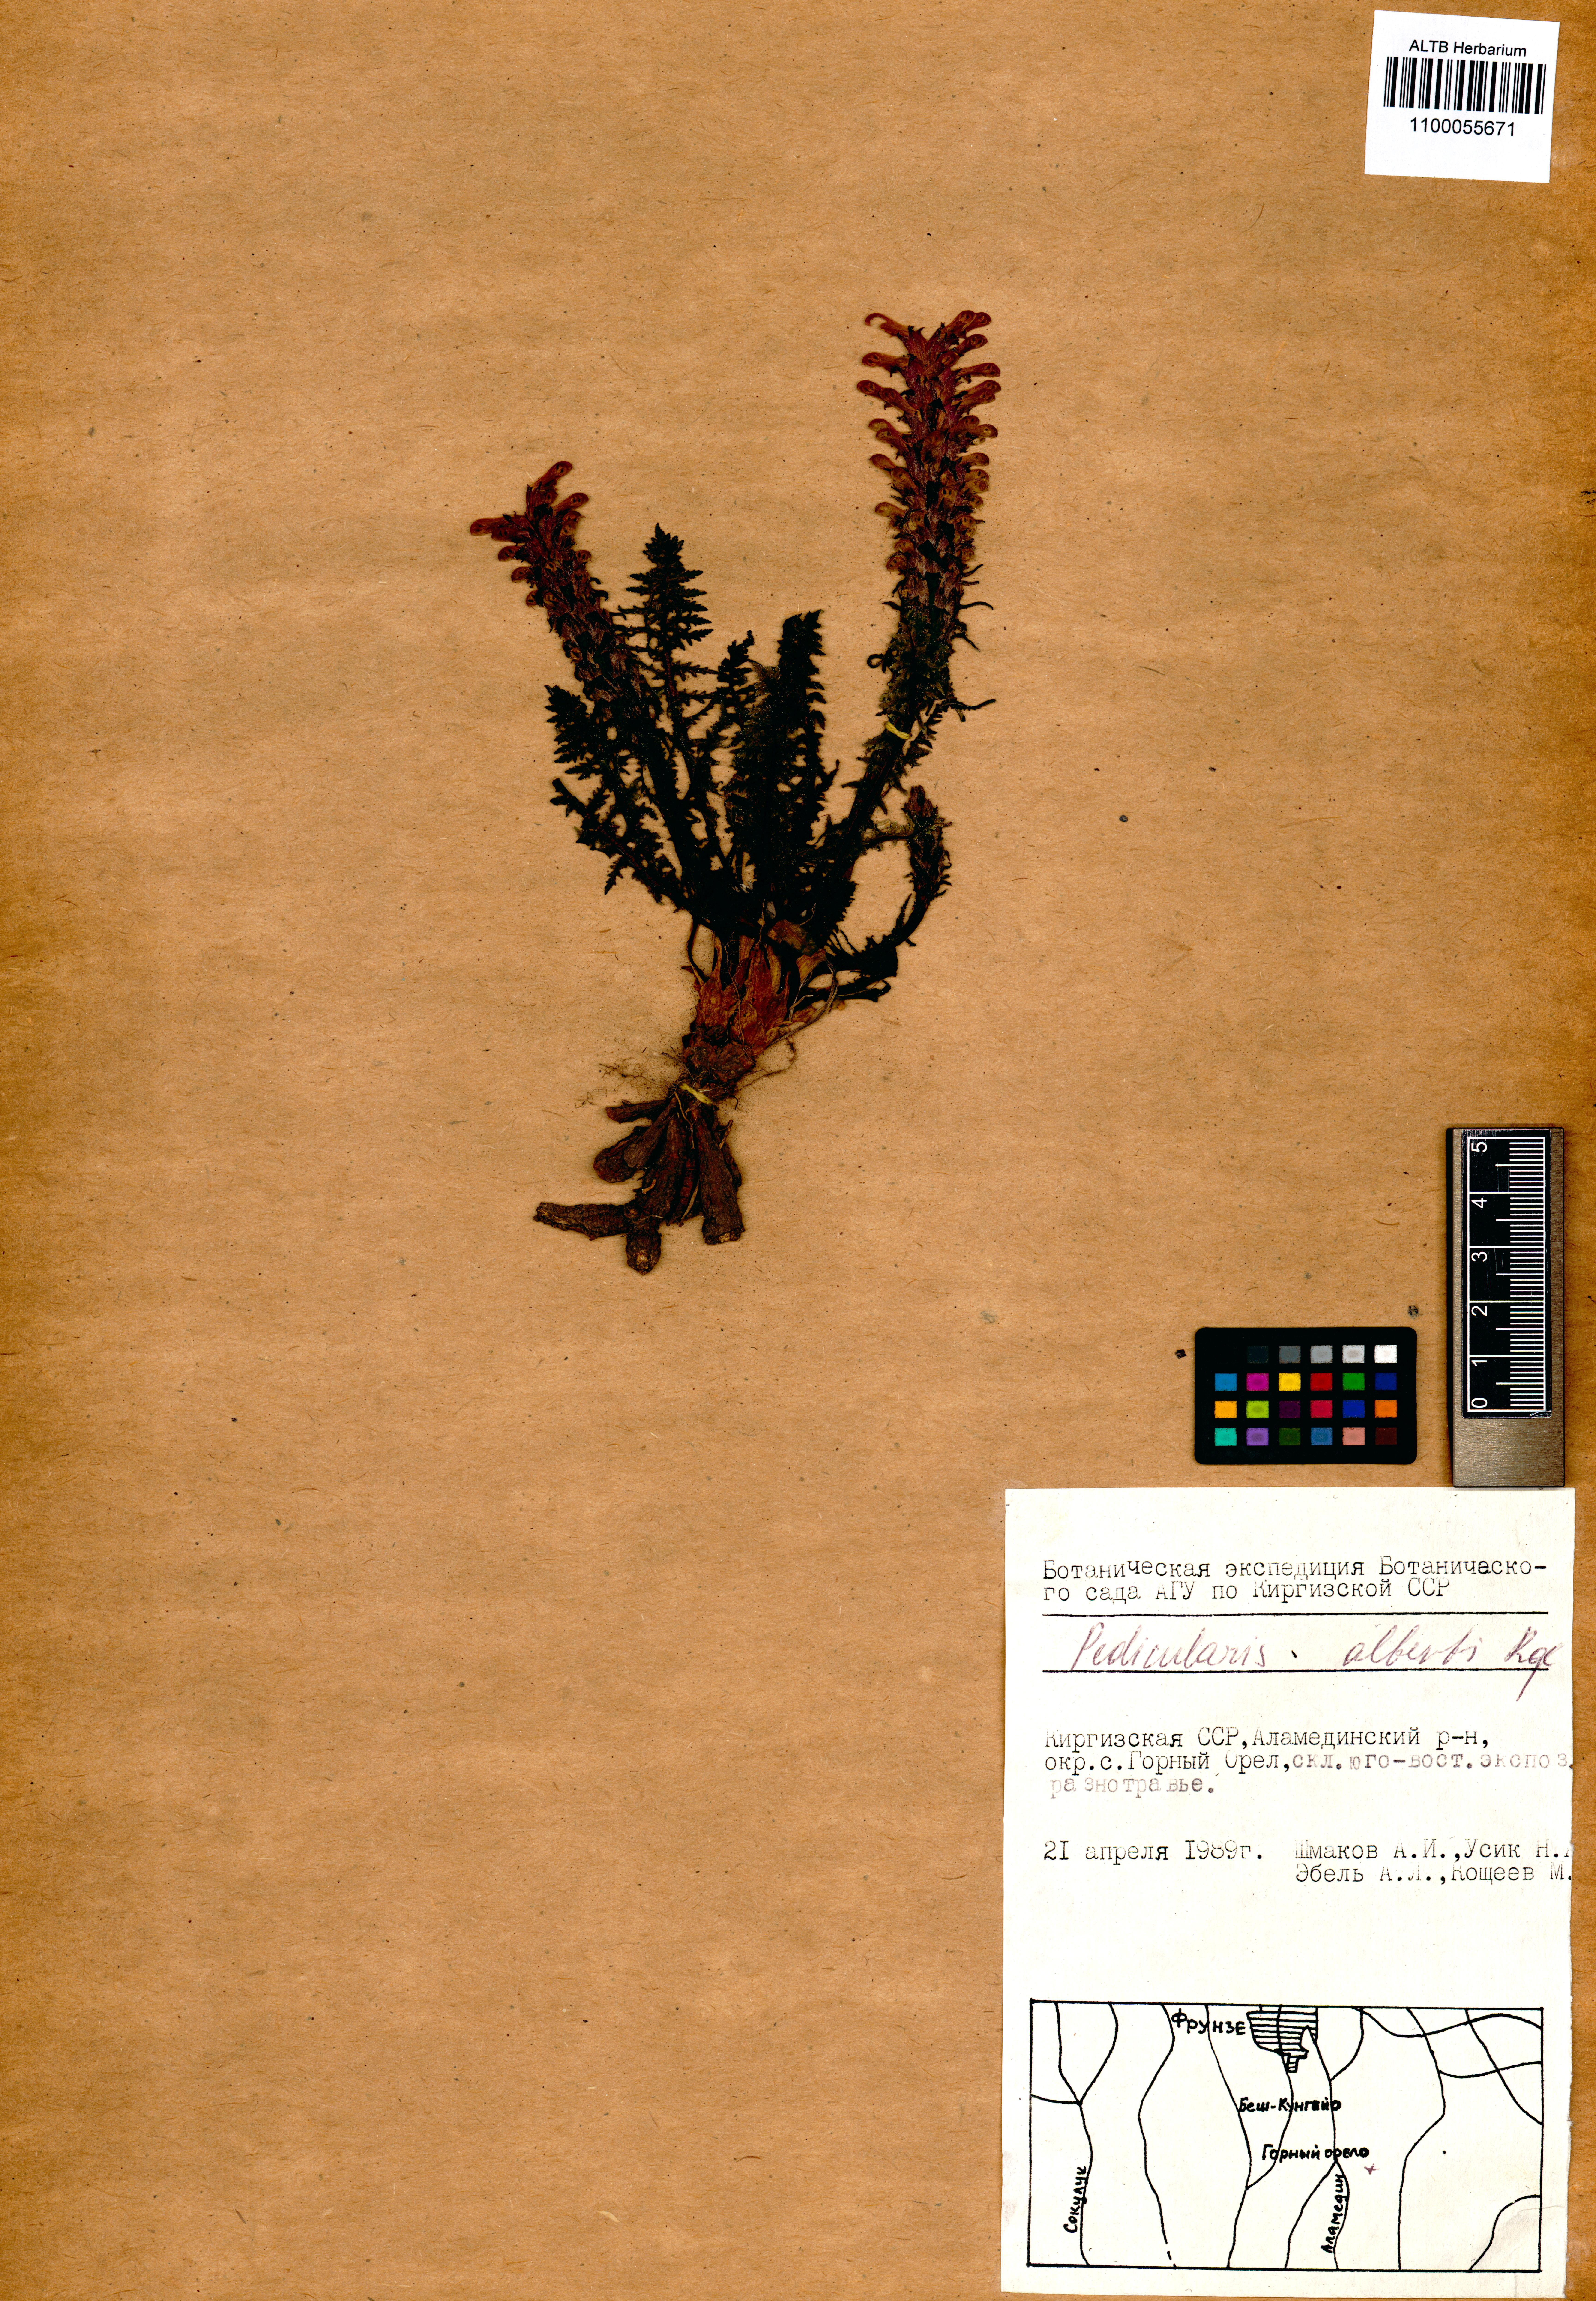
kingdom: Plantae
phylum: Tracheophyta
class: Magnoliopsida
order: Lamiales
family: Orobanchaceae
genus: Pedicularis
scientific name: Pedicularis alberti
